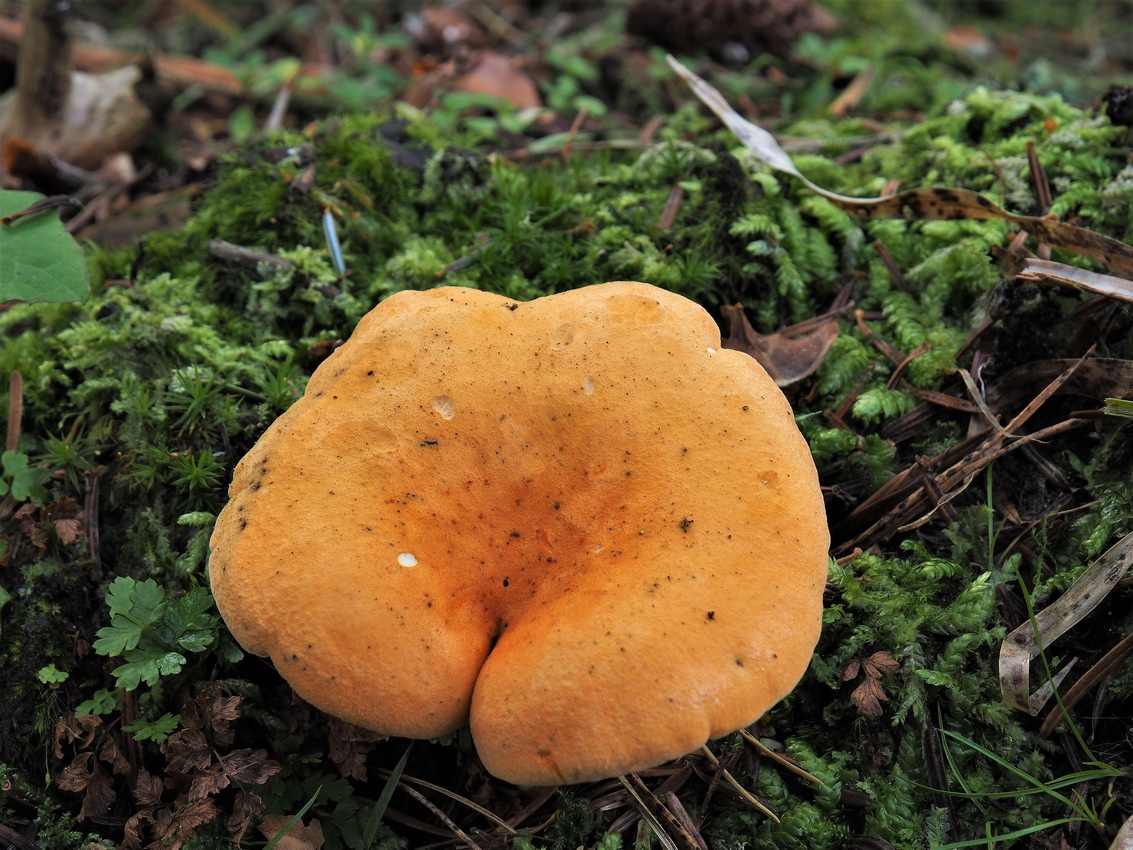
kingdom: Fungi
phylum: Basidiomycota
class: Agaricomycetes
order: Boletales
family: Hygrophoropsidaceae
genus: Hygrophoropsis
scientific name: Hygrophoropsis aurantiaca
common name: almindelig orangekantarel
